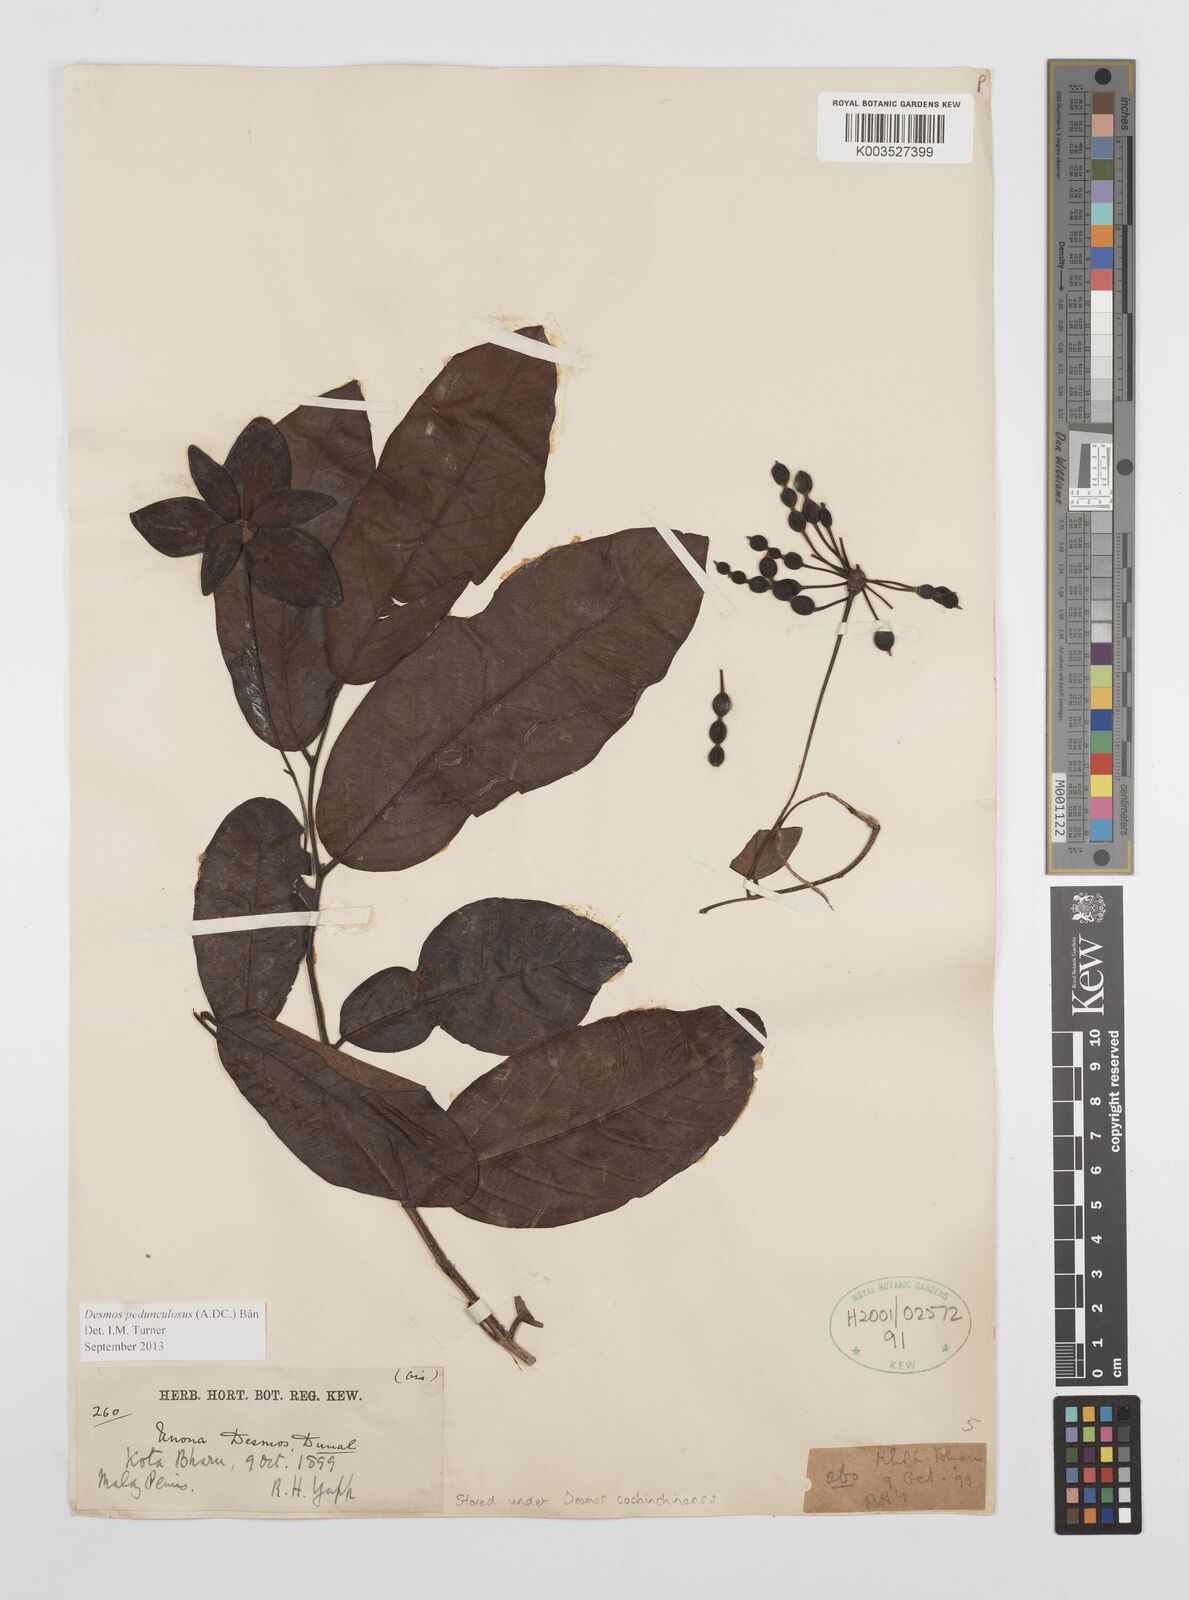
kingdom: Plantae
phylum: Tracheophyta
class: Magnoliopsida
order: Magnoliales
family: Annonaceae
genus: Desmos
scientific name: Desmos cochinchinensis
